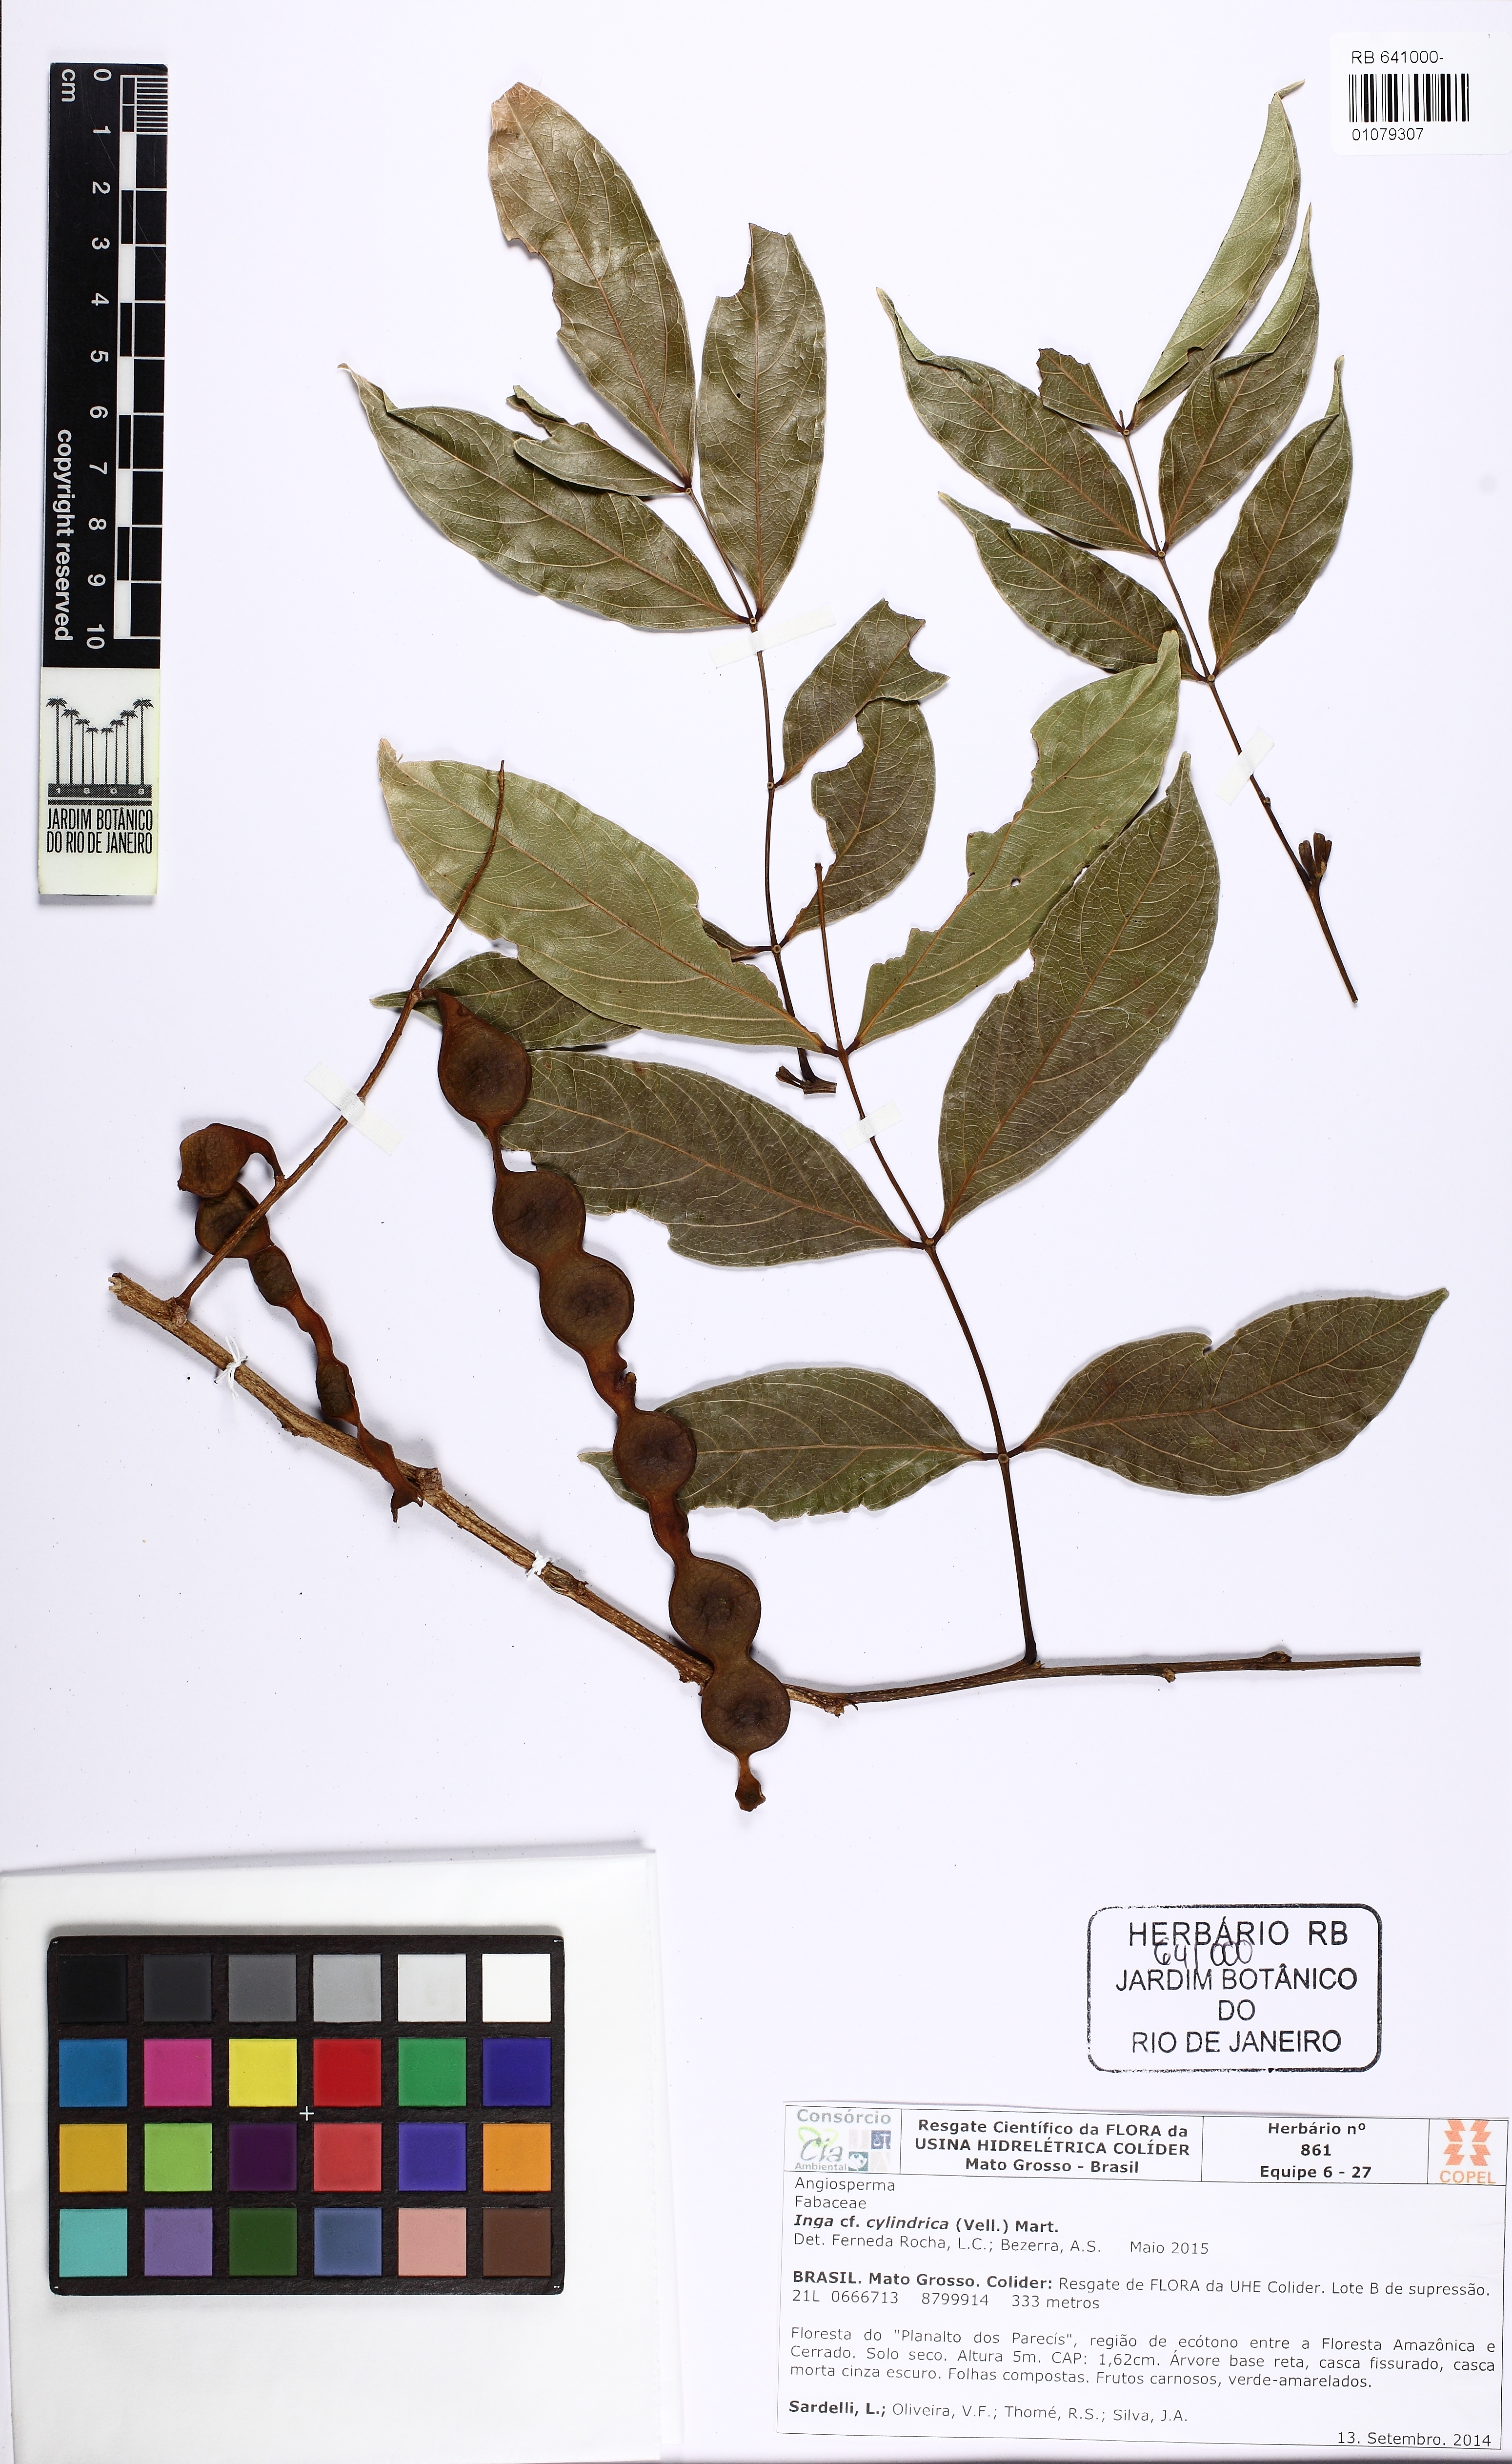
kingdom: Plantae
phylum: Tracheophyta
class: Magnoliopsida
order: Fabales
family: Fabaceae
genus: Inga
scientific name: Inga cylindrica
